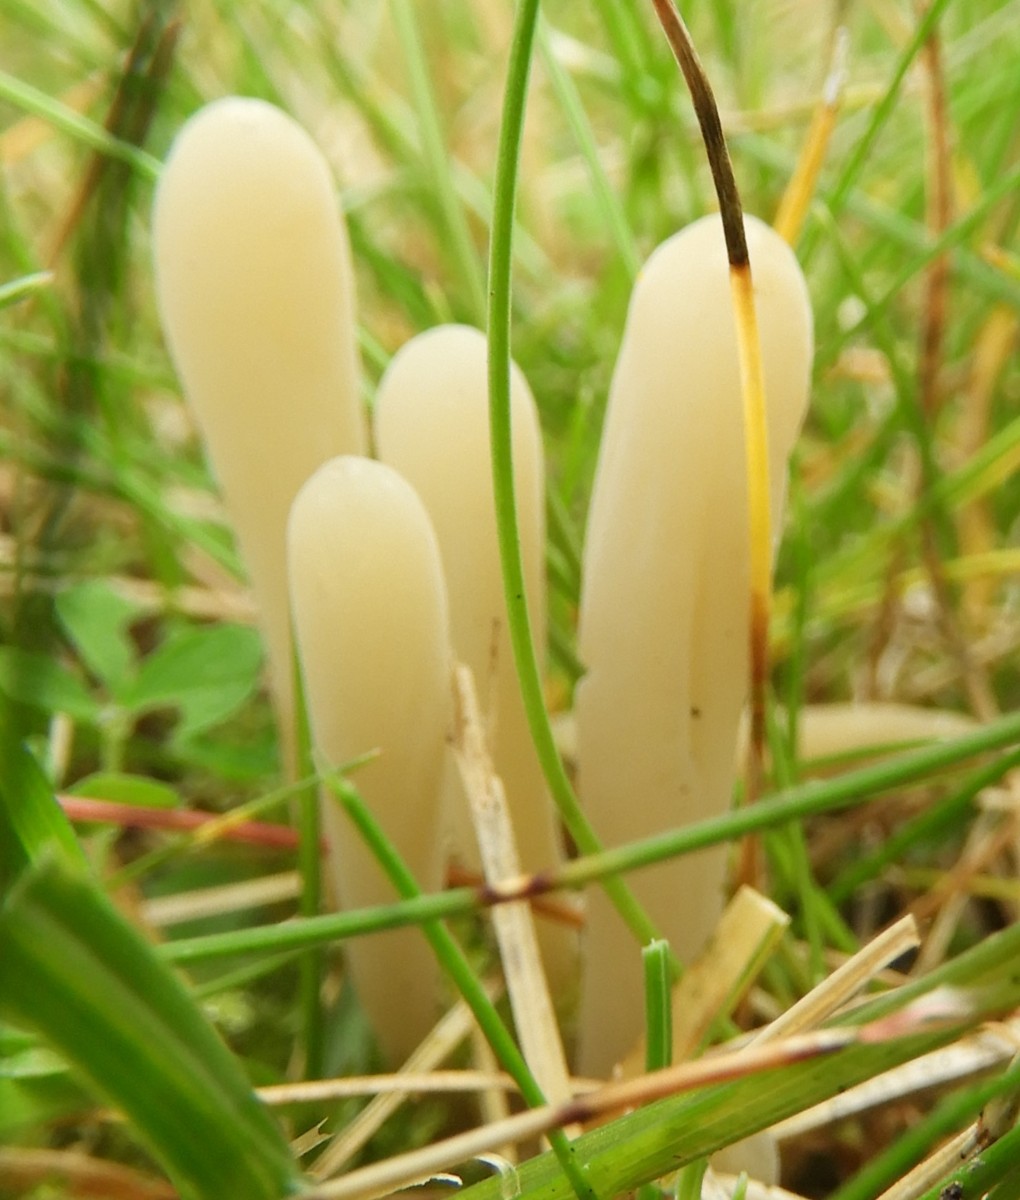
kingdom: Fungi
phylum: Basidiomycota
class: Agaricomycetes
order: Agaricales
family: Clavariaceae
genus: Clavaria
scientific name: Clavaria tenuipes
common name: isabellafarvet køllesvamp
